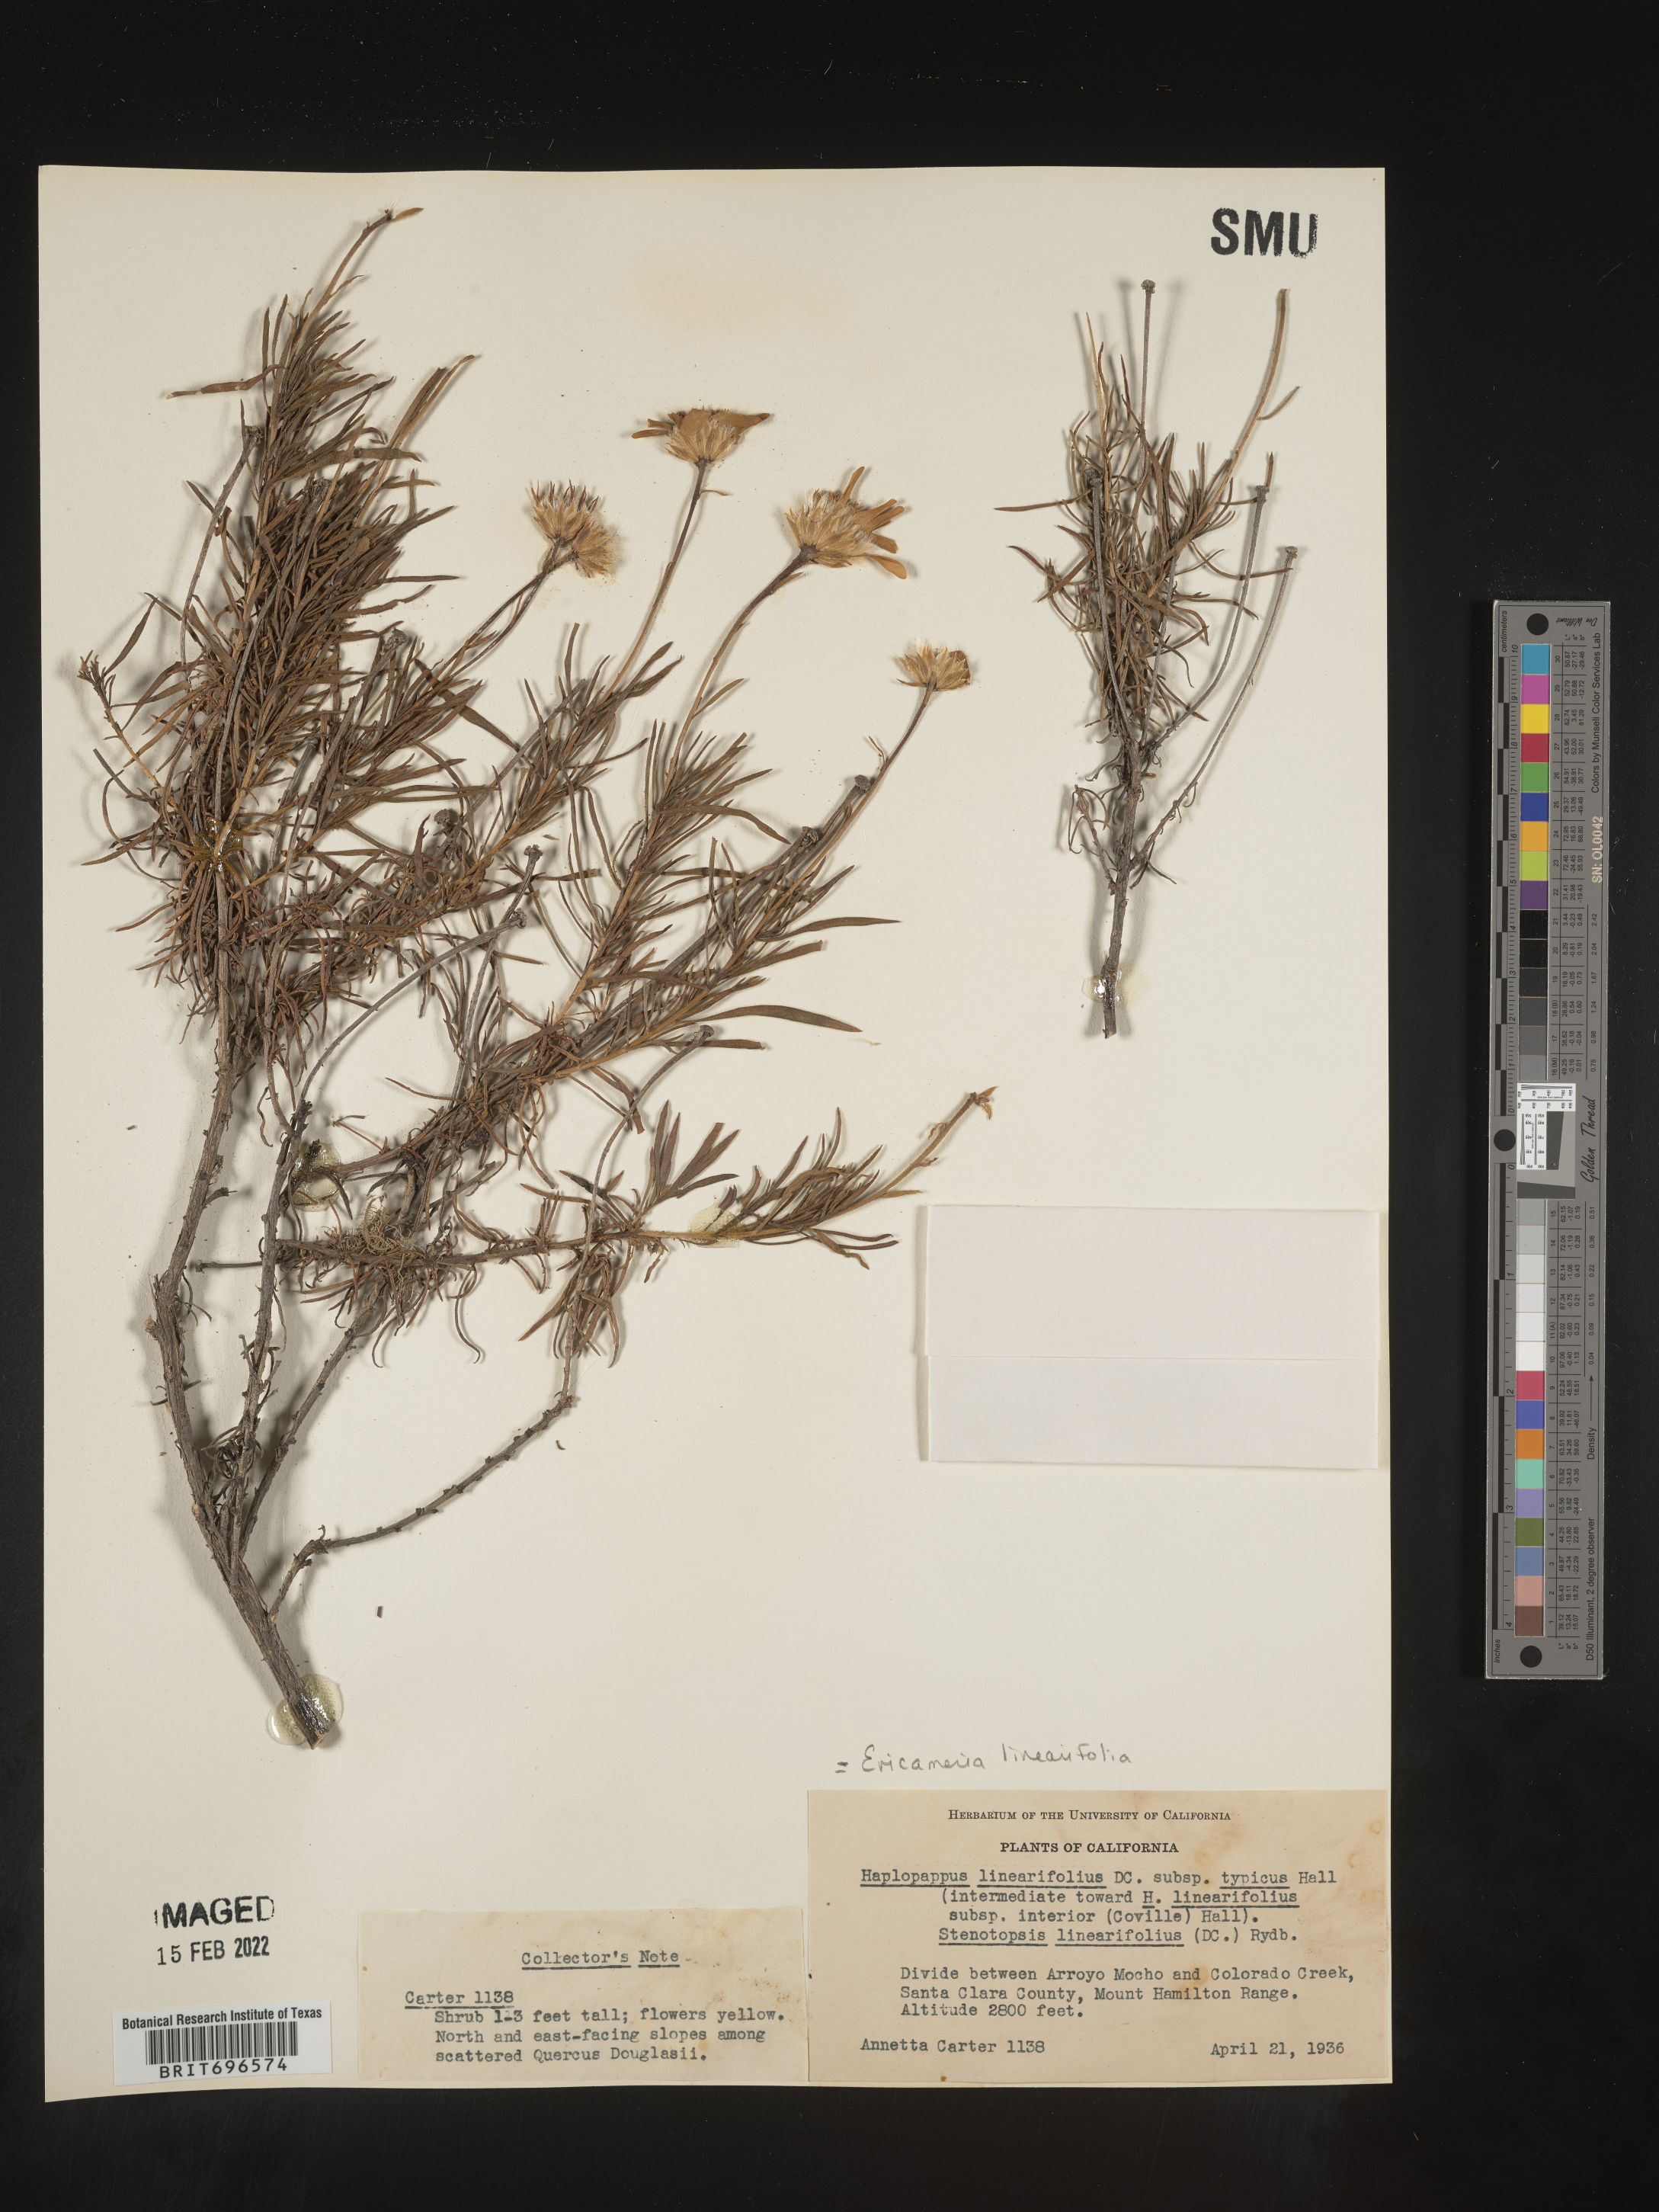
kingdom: Plantae
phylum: Tracheophyta
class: Magnoliopsida
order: Asterales
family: Asteraceae
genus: Ericameria
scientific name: Ericameria linearifolia
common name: Interior goldenbush
